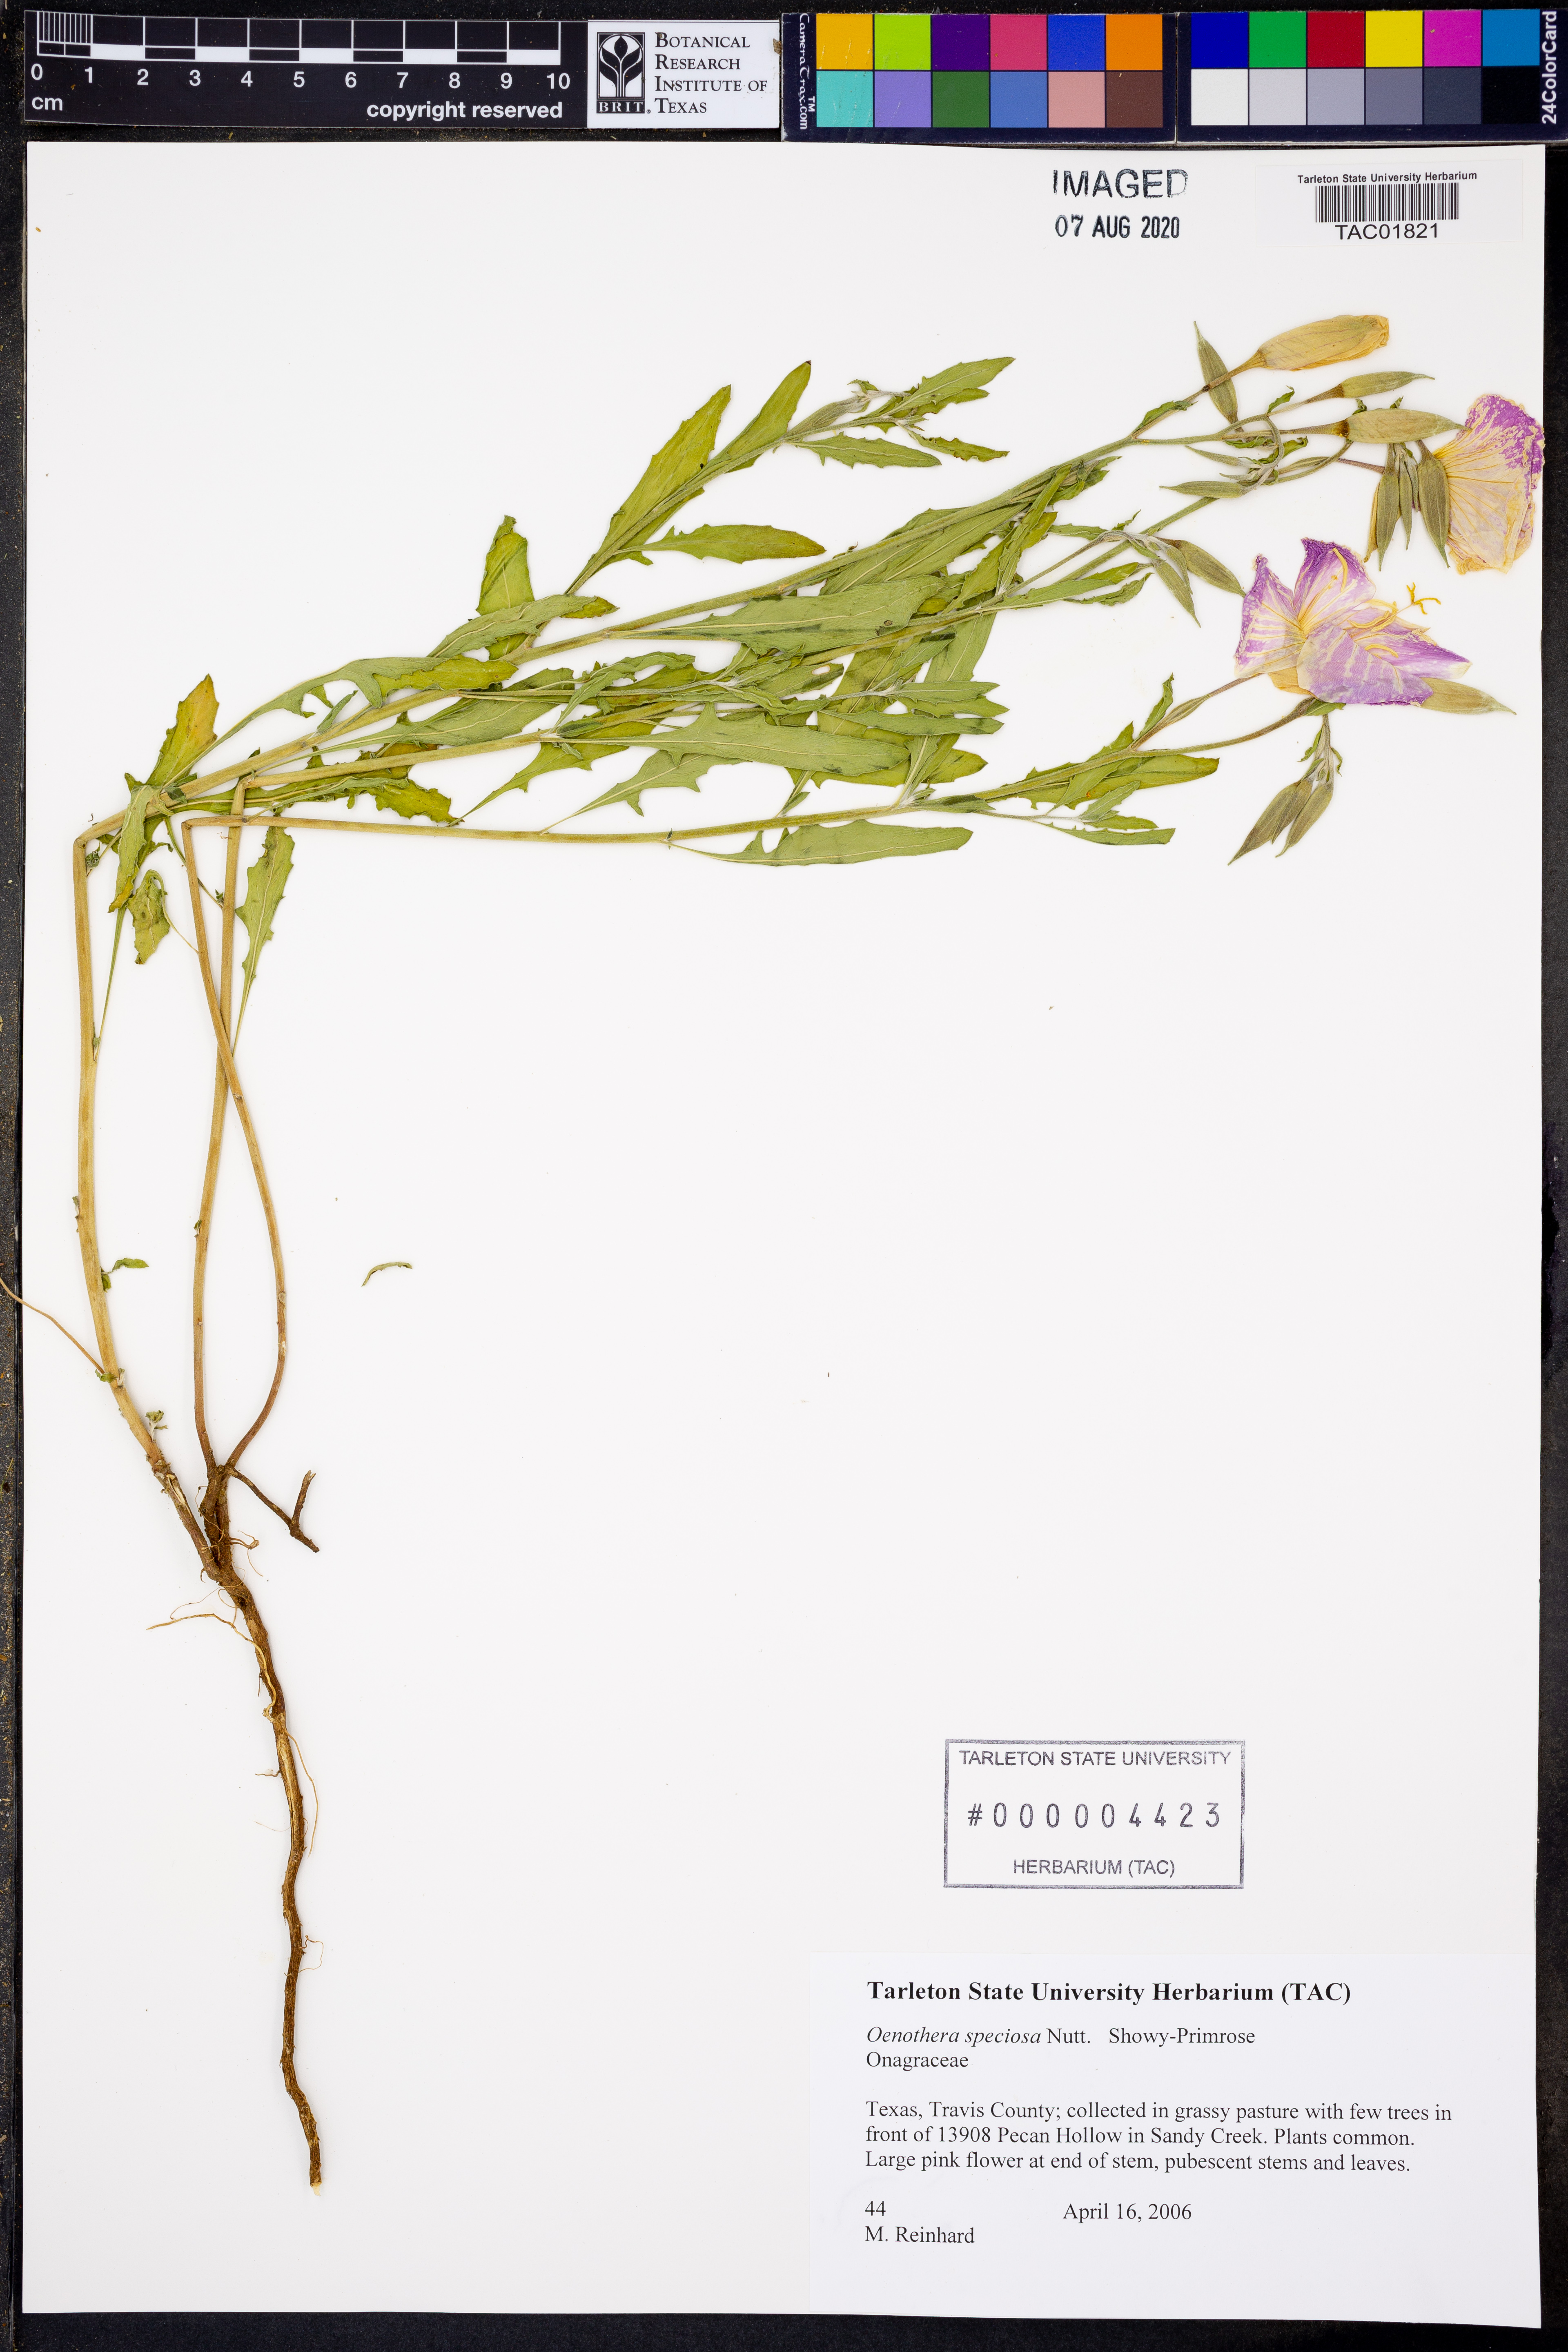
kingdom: Plantae
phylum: Tracheophyta
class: Magnoliopsida
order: Myrtales
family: Onagraceae
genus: Oenothera
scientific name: Oenothera speciosa
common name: White evening-primrose
